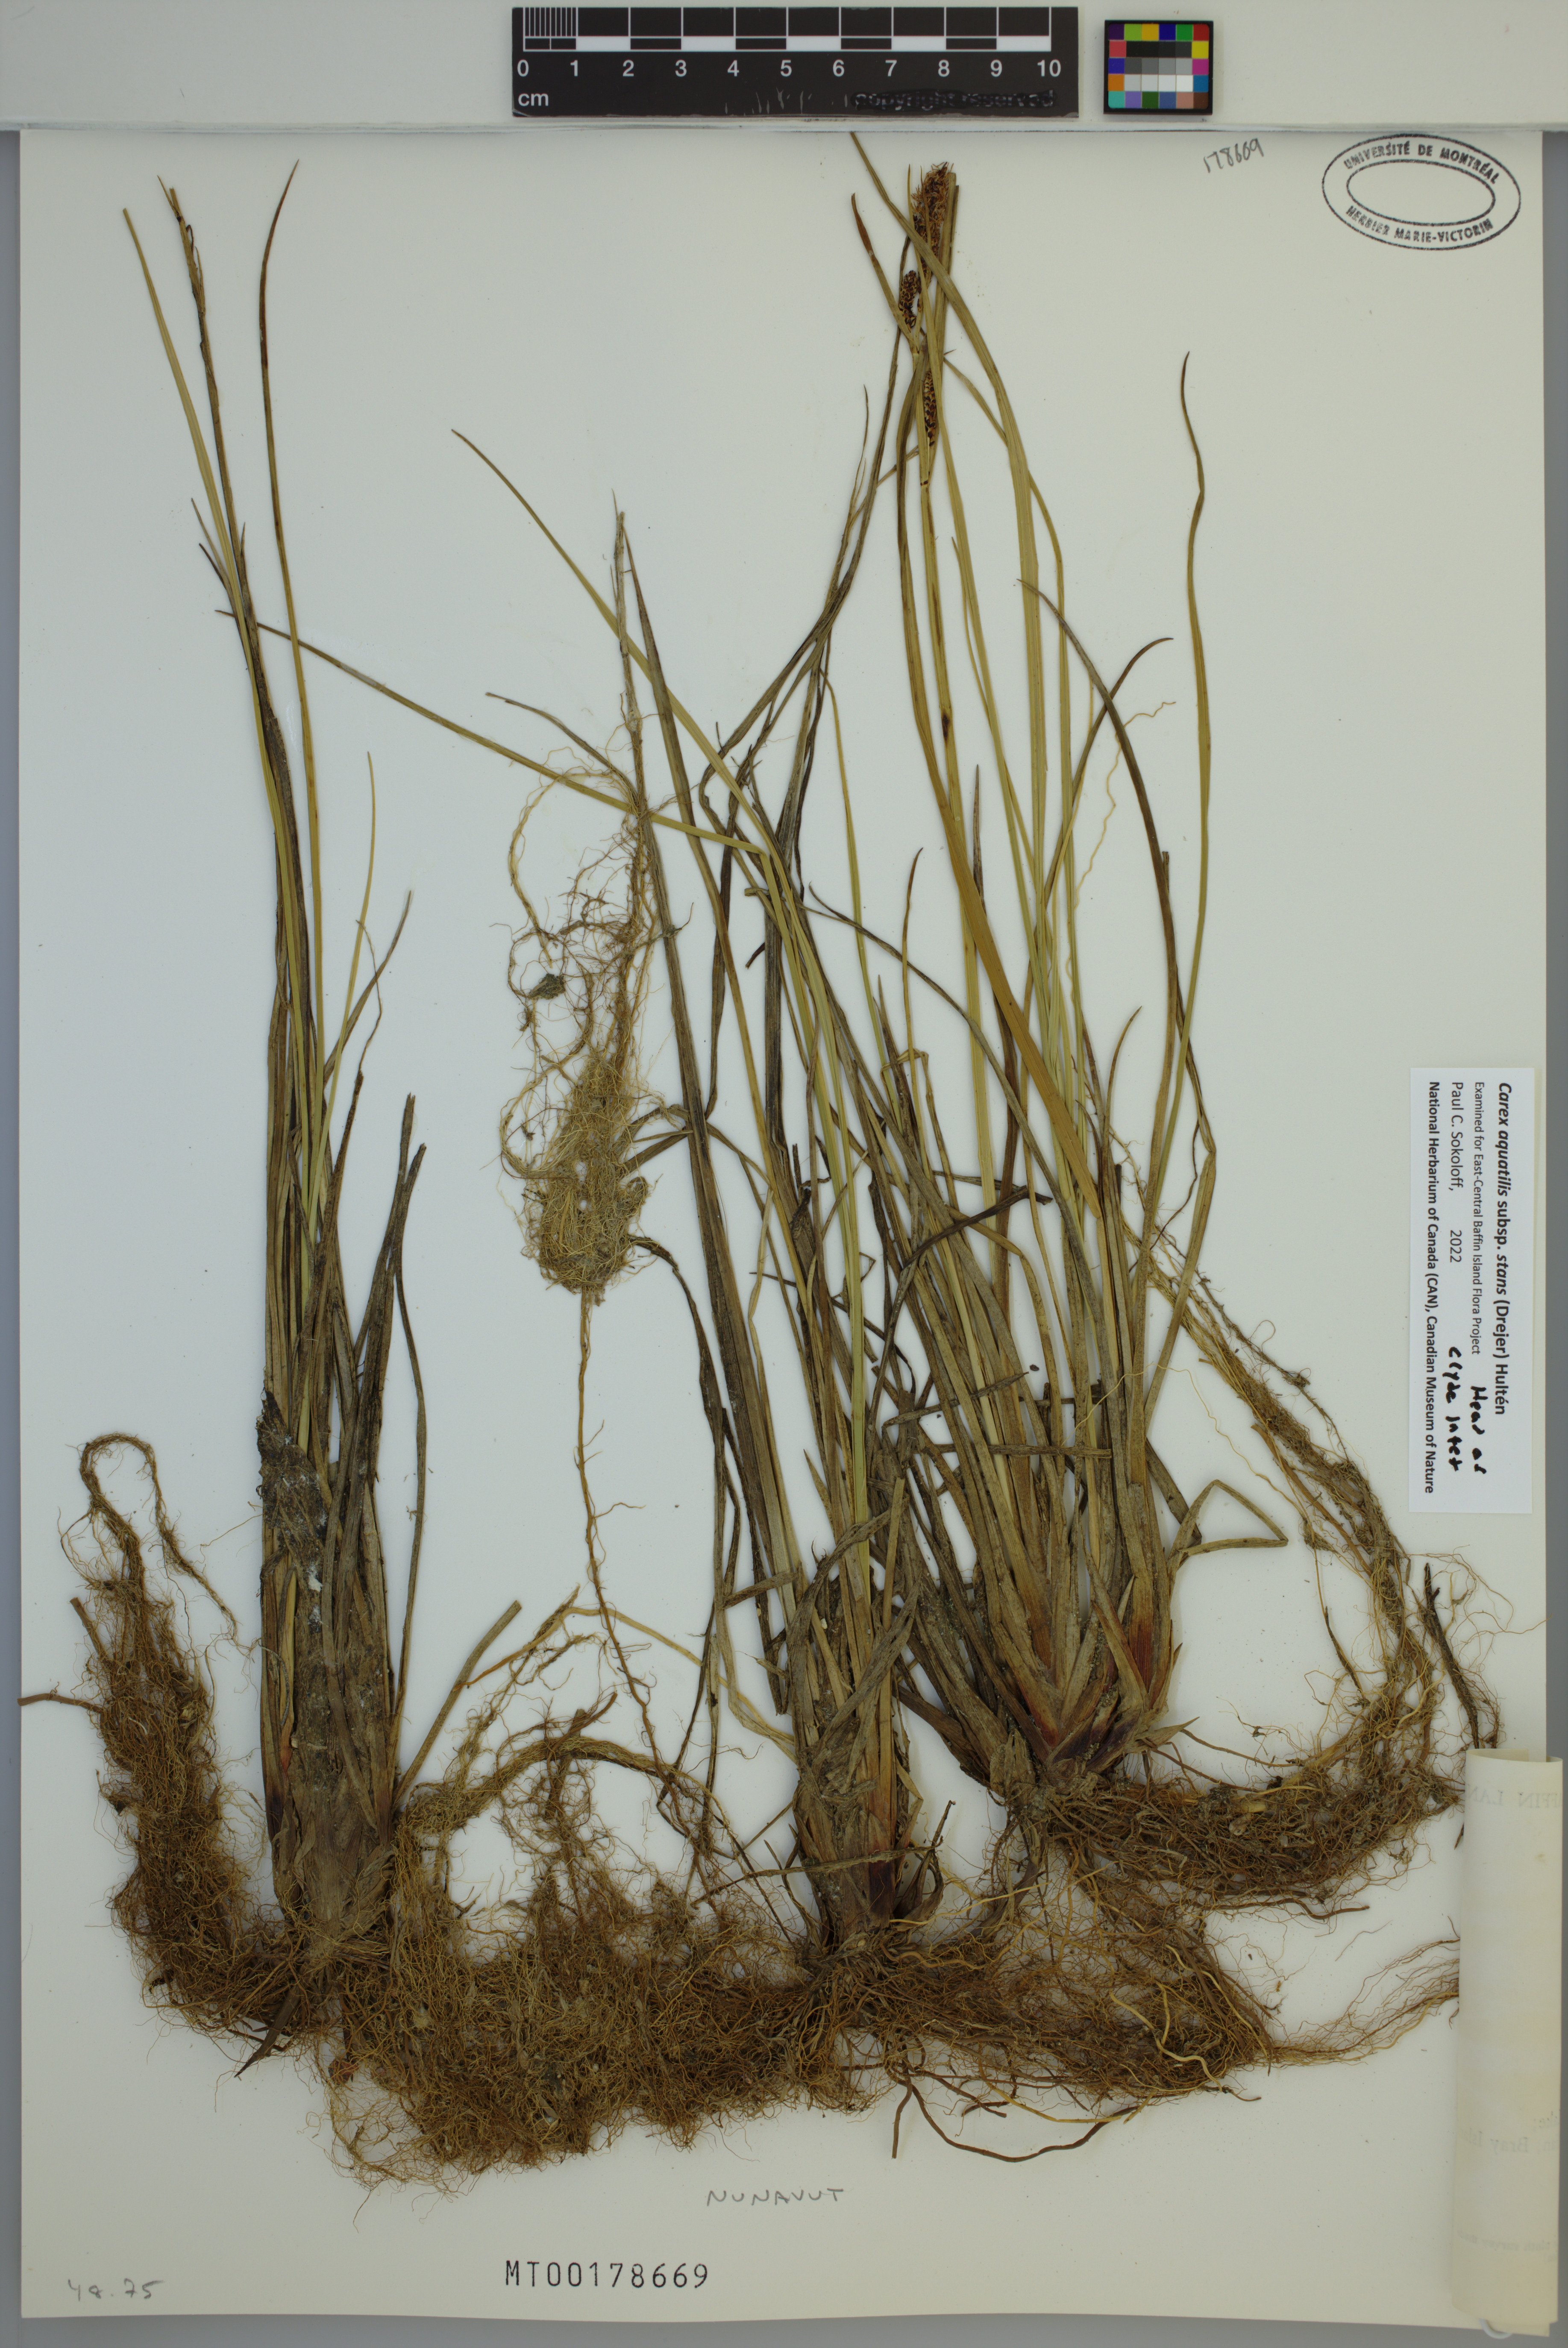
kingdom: Plantae
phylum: Tracheophyta
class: Liliopsida
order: Poales
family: Cyperaceae
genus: Carex
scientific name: Carex aquatilis
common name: Water sedge
